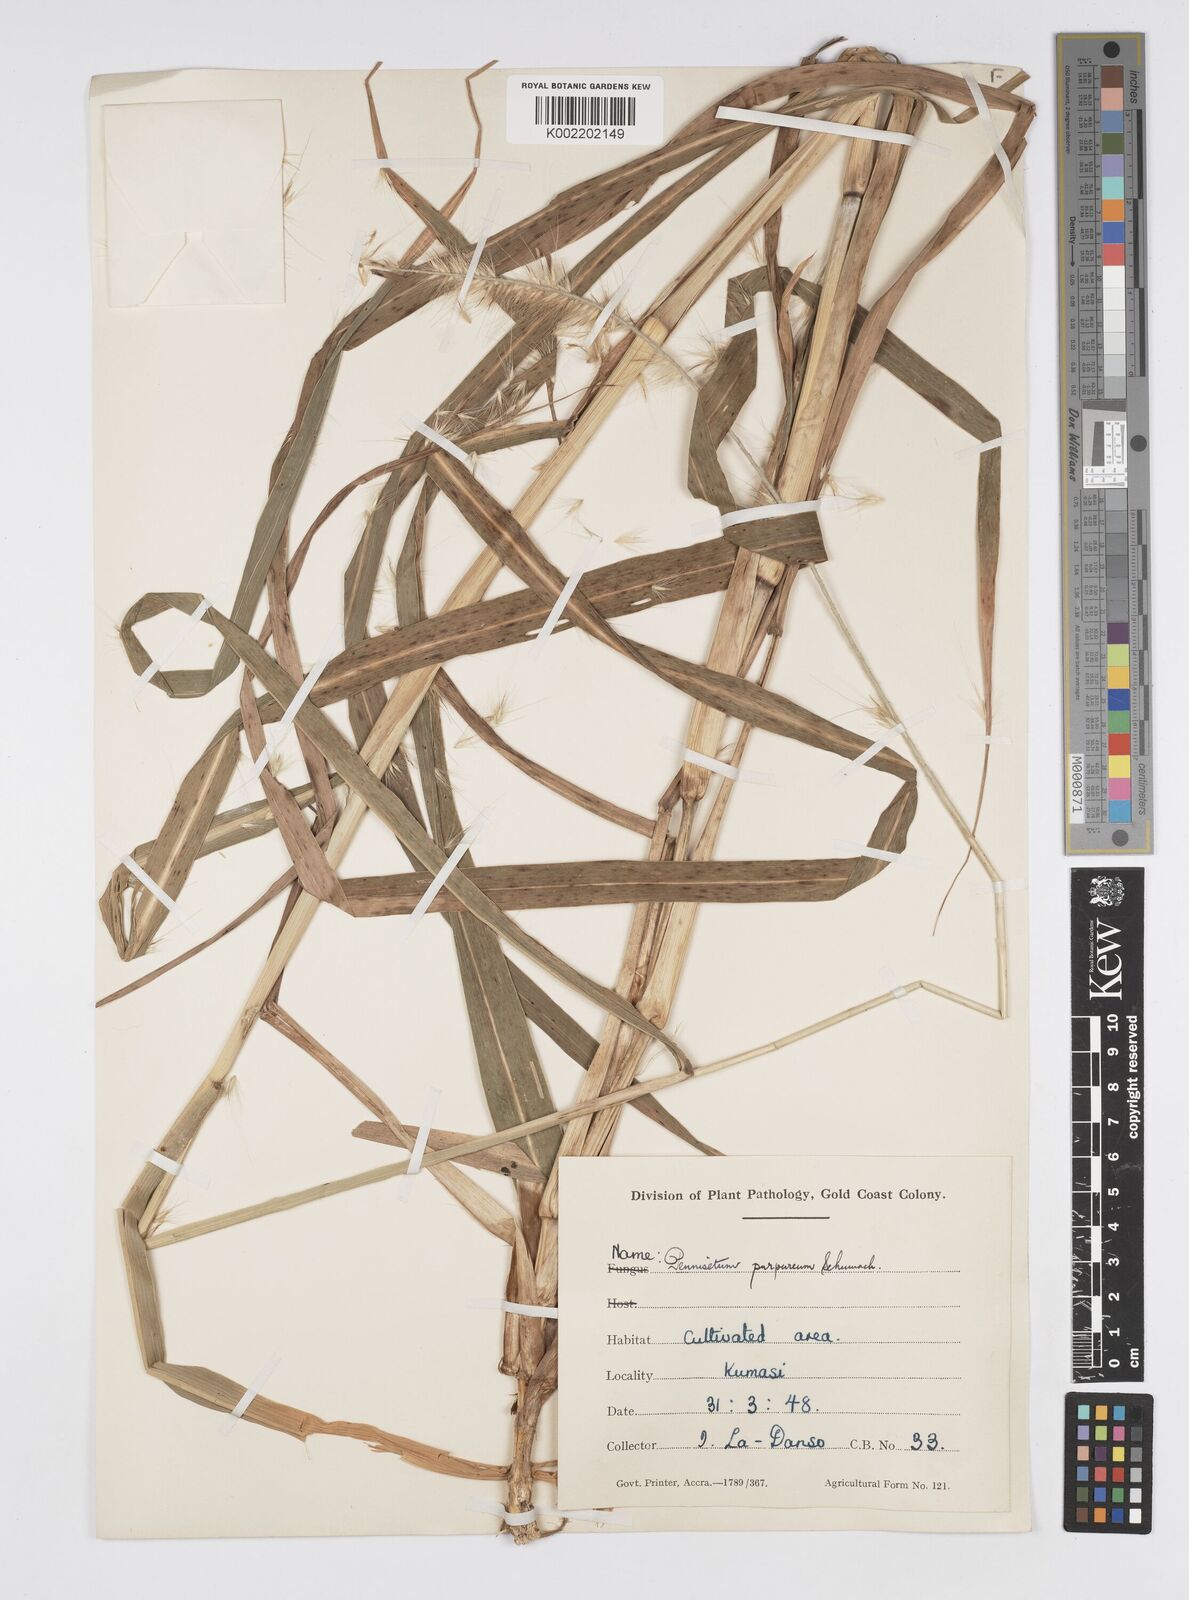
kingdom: Plantae
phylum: Tracheophyta
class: Liliopsida
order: Poales
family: Poaceae
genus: Cenchrus
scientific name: Cenchrus purpureus
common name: Elephant grass
